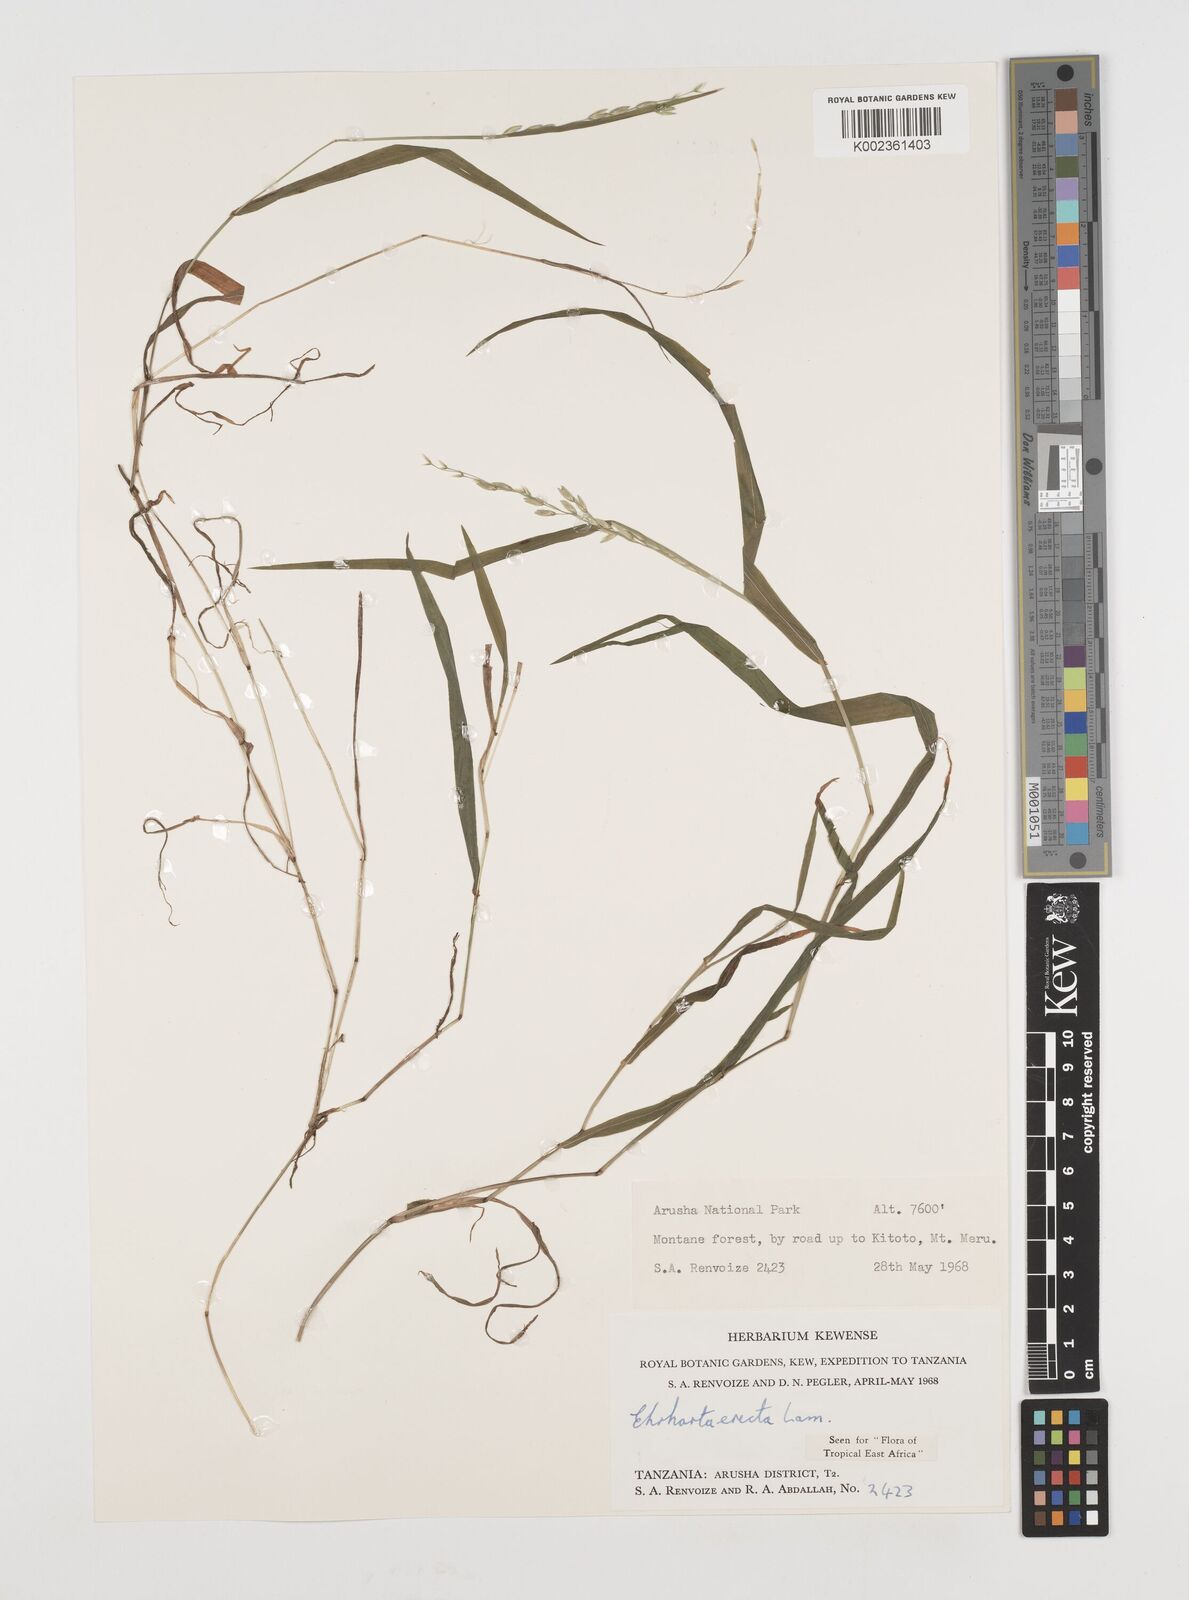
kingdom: Plantae
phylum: Tracheophyta
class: Liliopsida
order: Poales
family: Poaceae
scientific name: Poaceae
